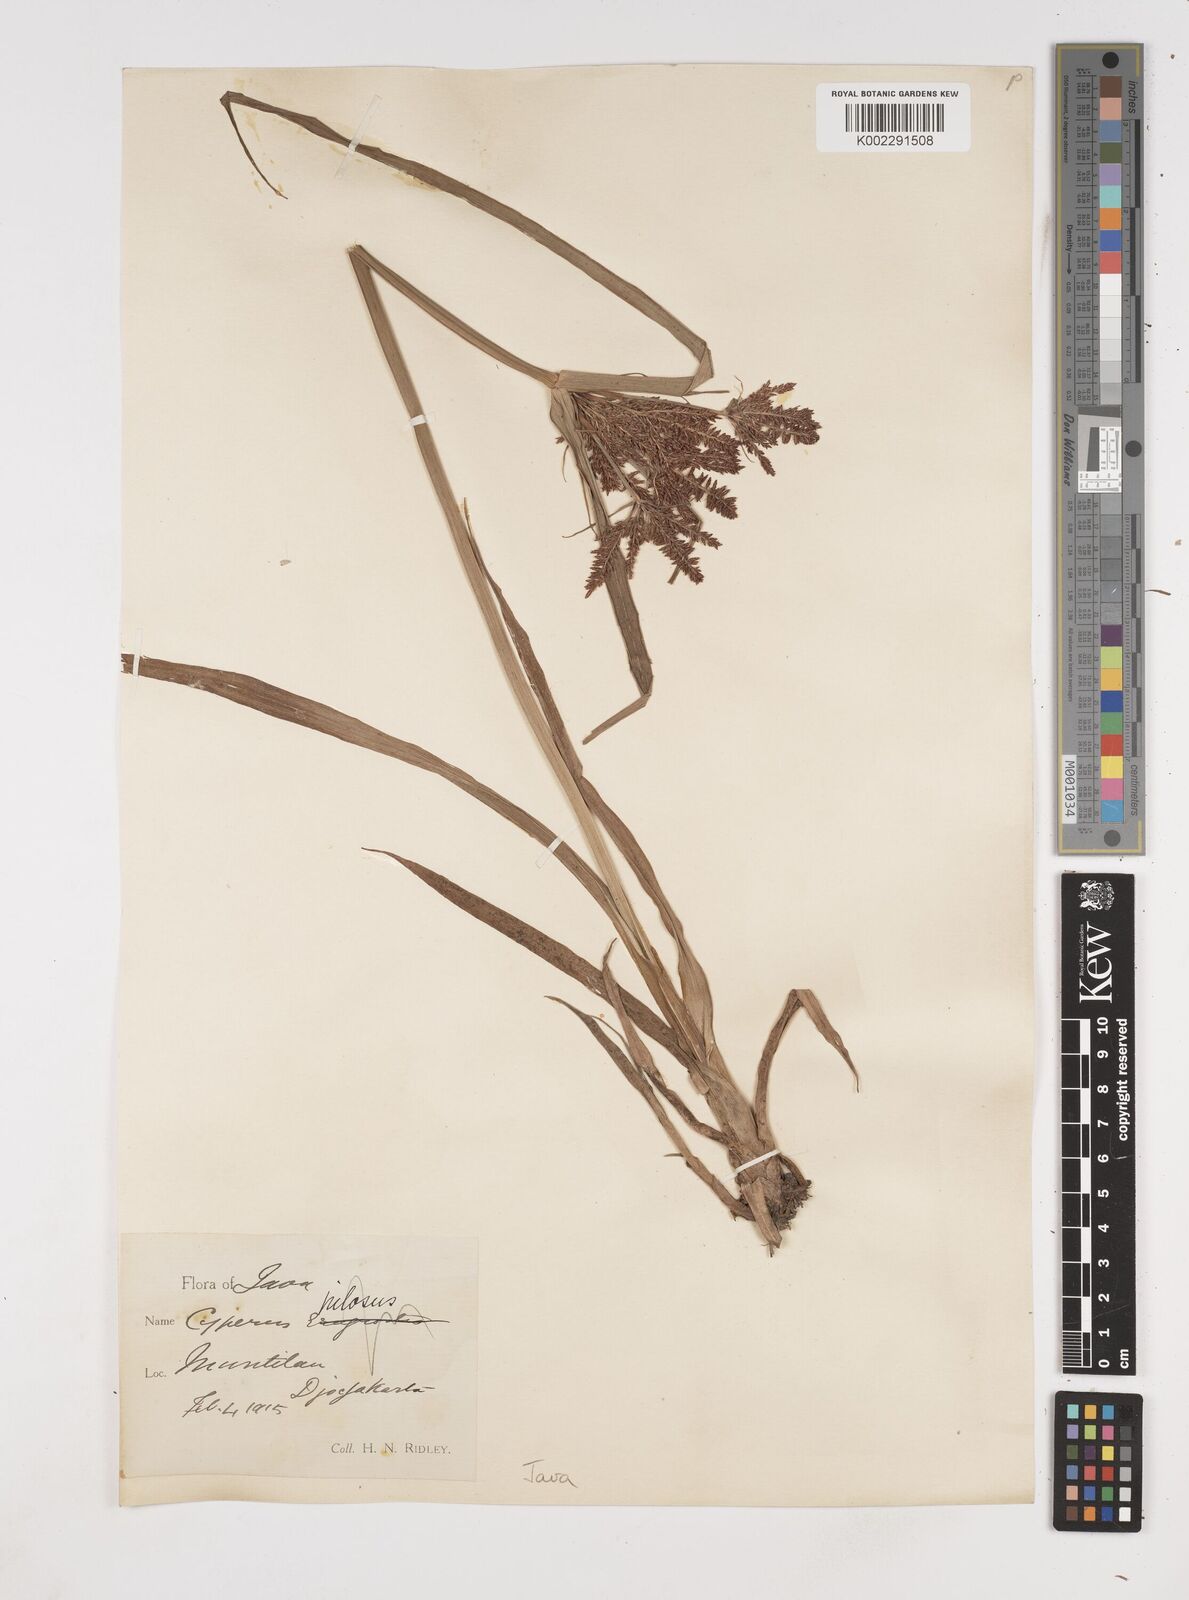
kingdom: Plantae
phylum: Tracheophyta
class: Liliopsida
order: Poales
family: Cyperaceae
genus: Cyperus
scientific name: Cyperus pilosus
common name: Fuzzy flatsedge
